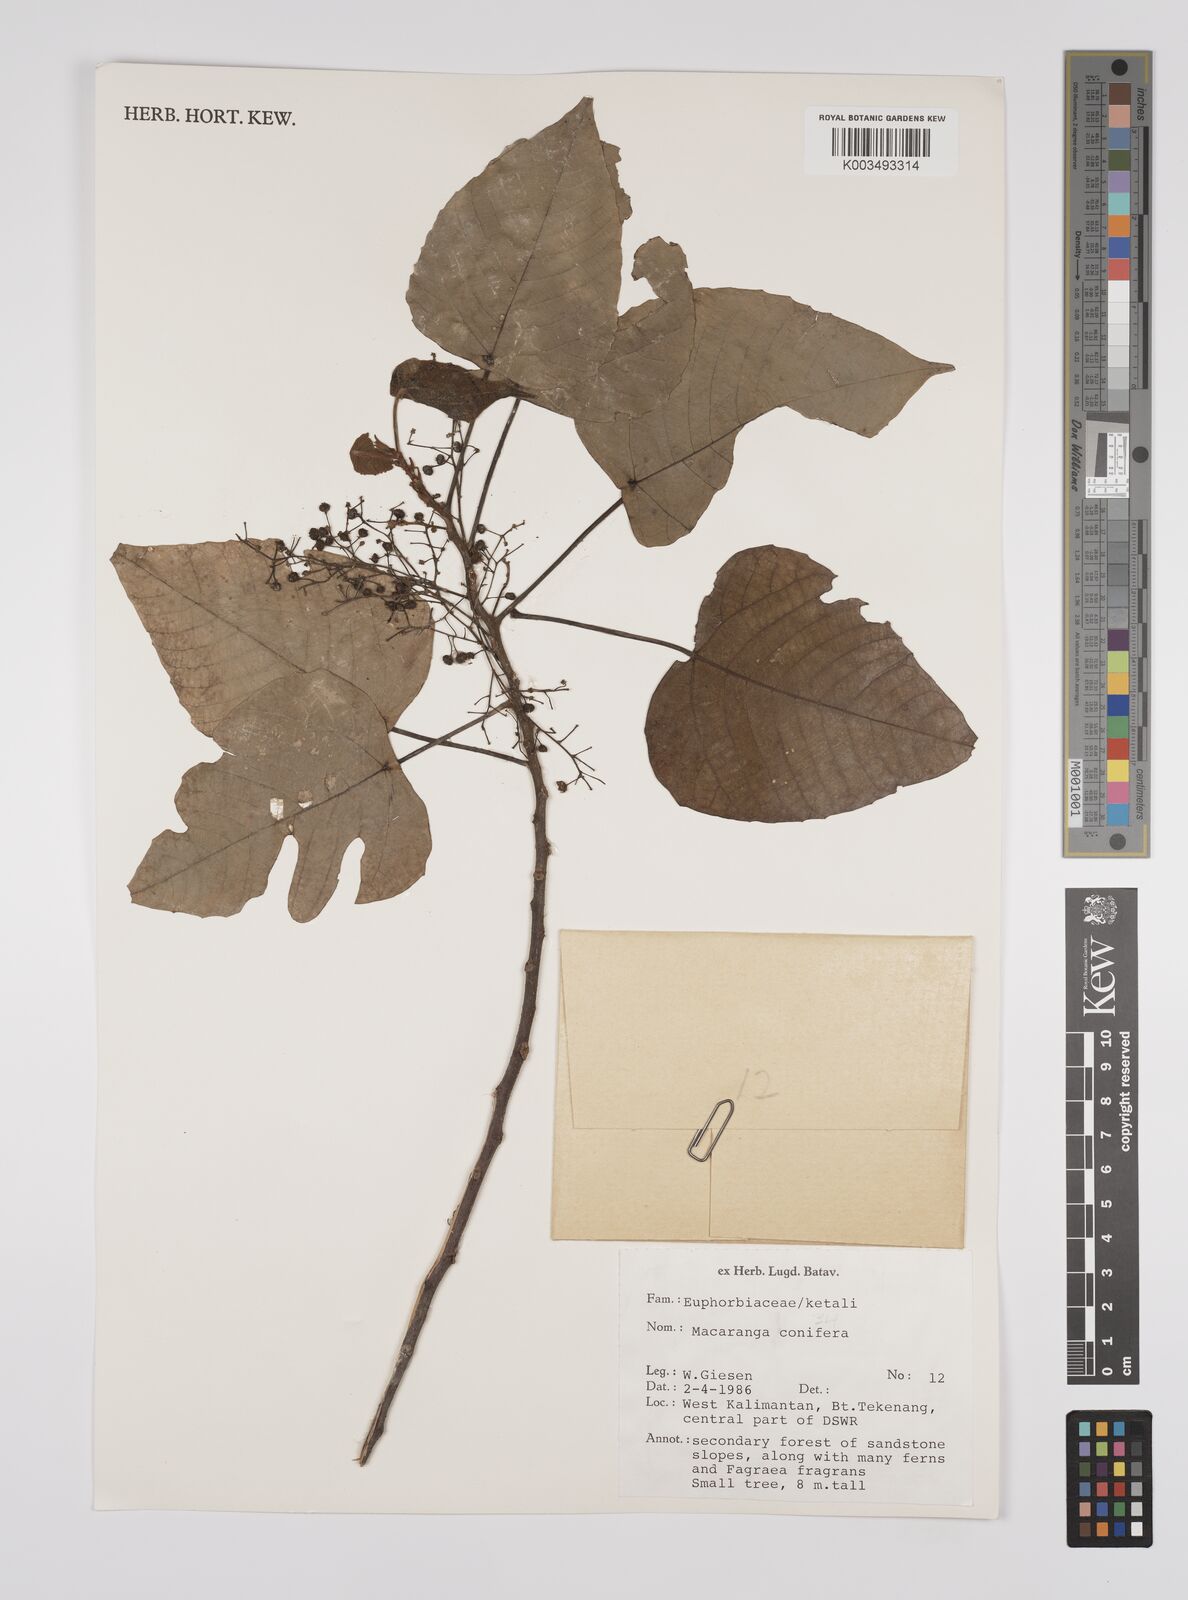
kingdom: Plantae
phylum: Tracheophyta
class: Magnoliopsida
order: Malpighiales
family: Euphorbiaceae
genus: Macaranga
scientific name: Macaranga conifera
